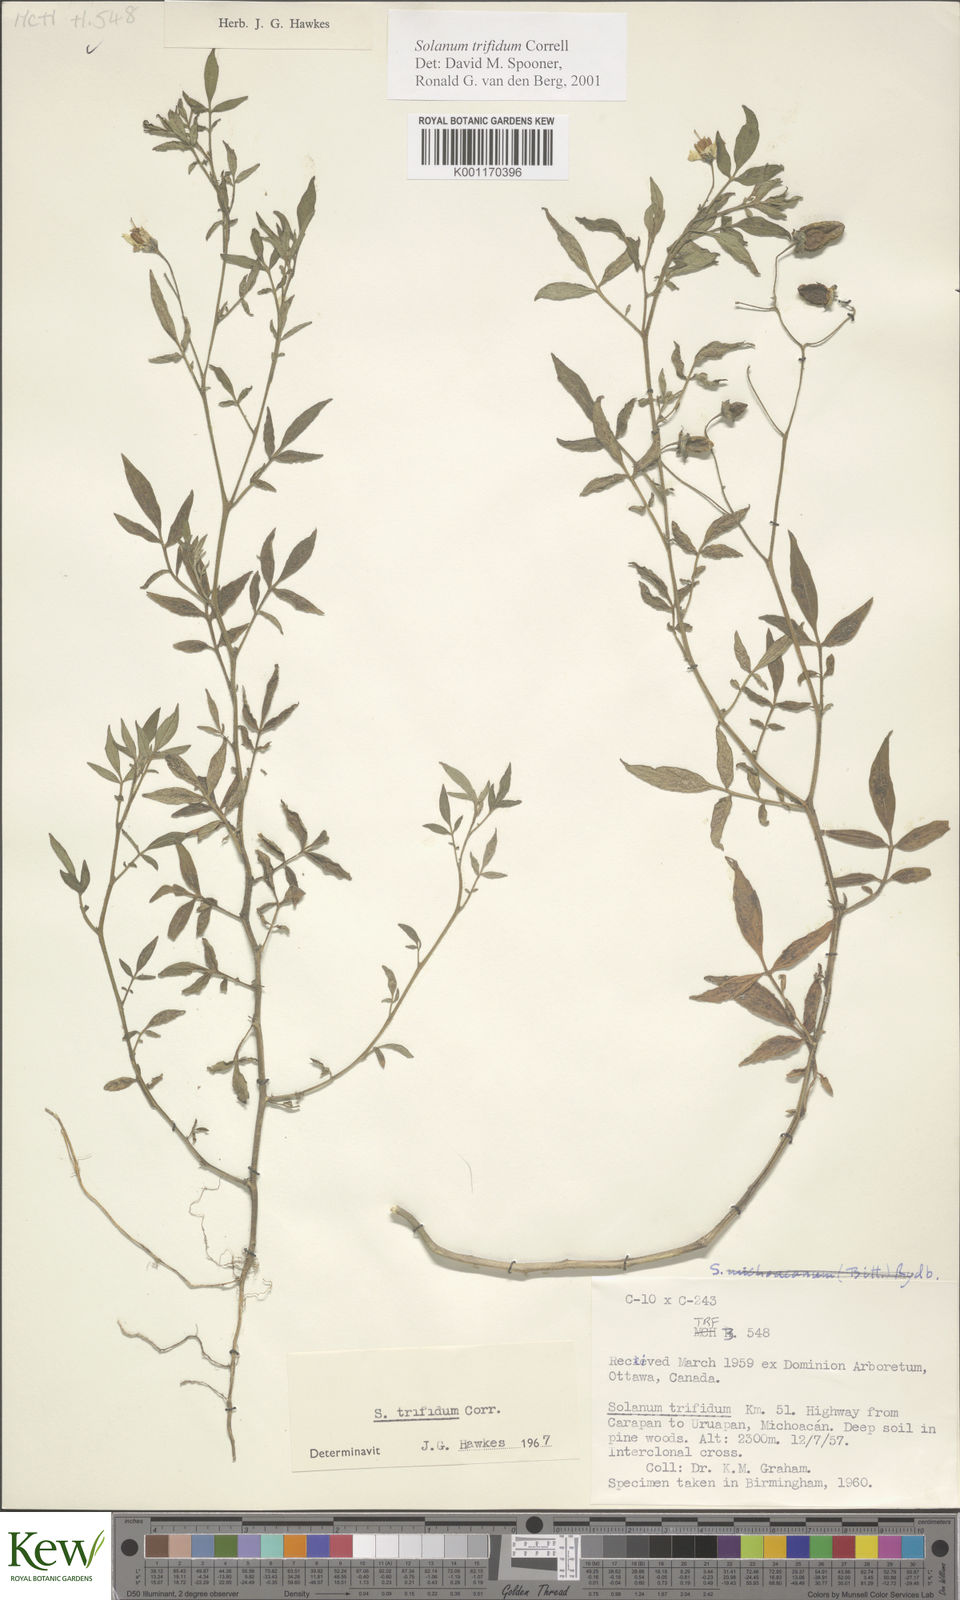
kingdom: Plantae
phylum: Tracheophyta
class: Magnoliopsida
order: Solanales
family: Solanaceae
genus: Solanum
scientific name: Solanum trifidum
